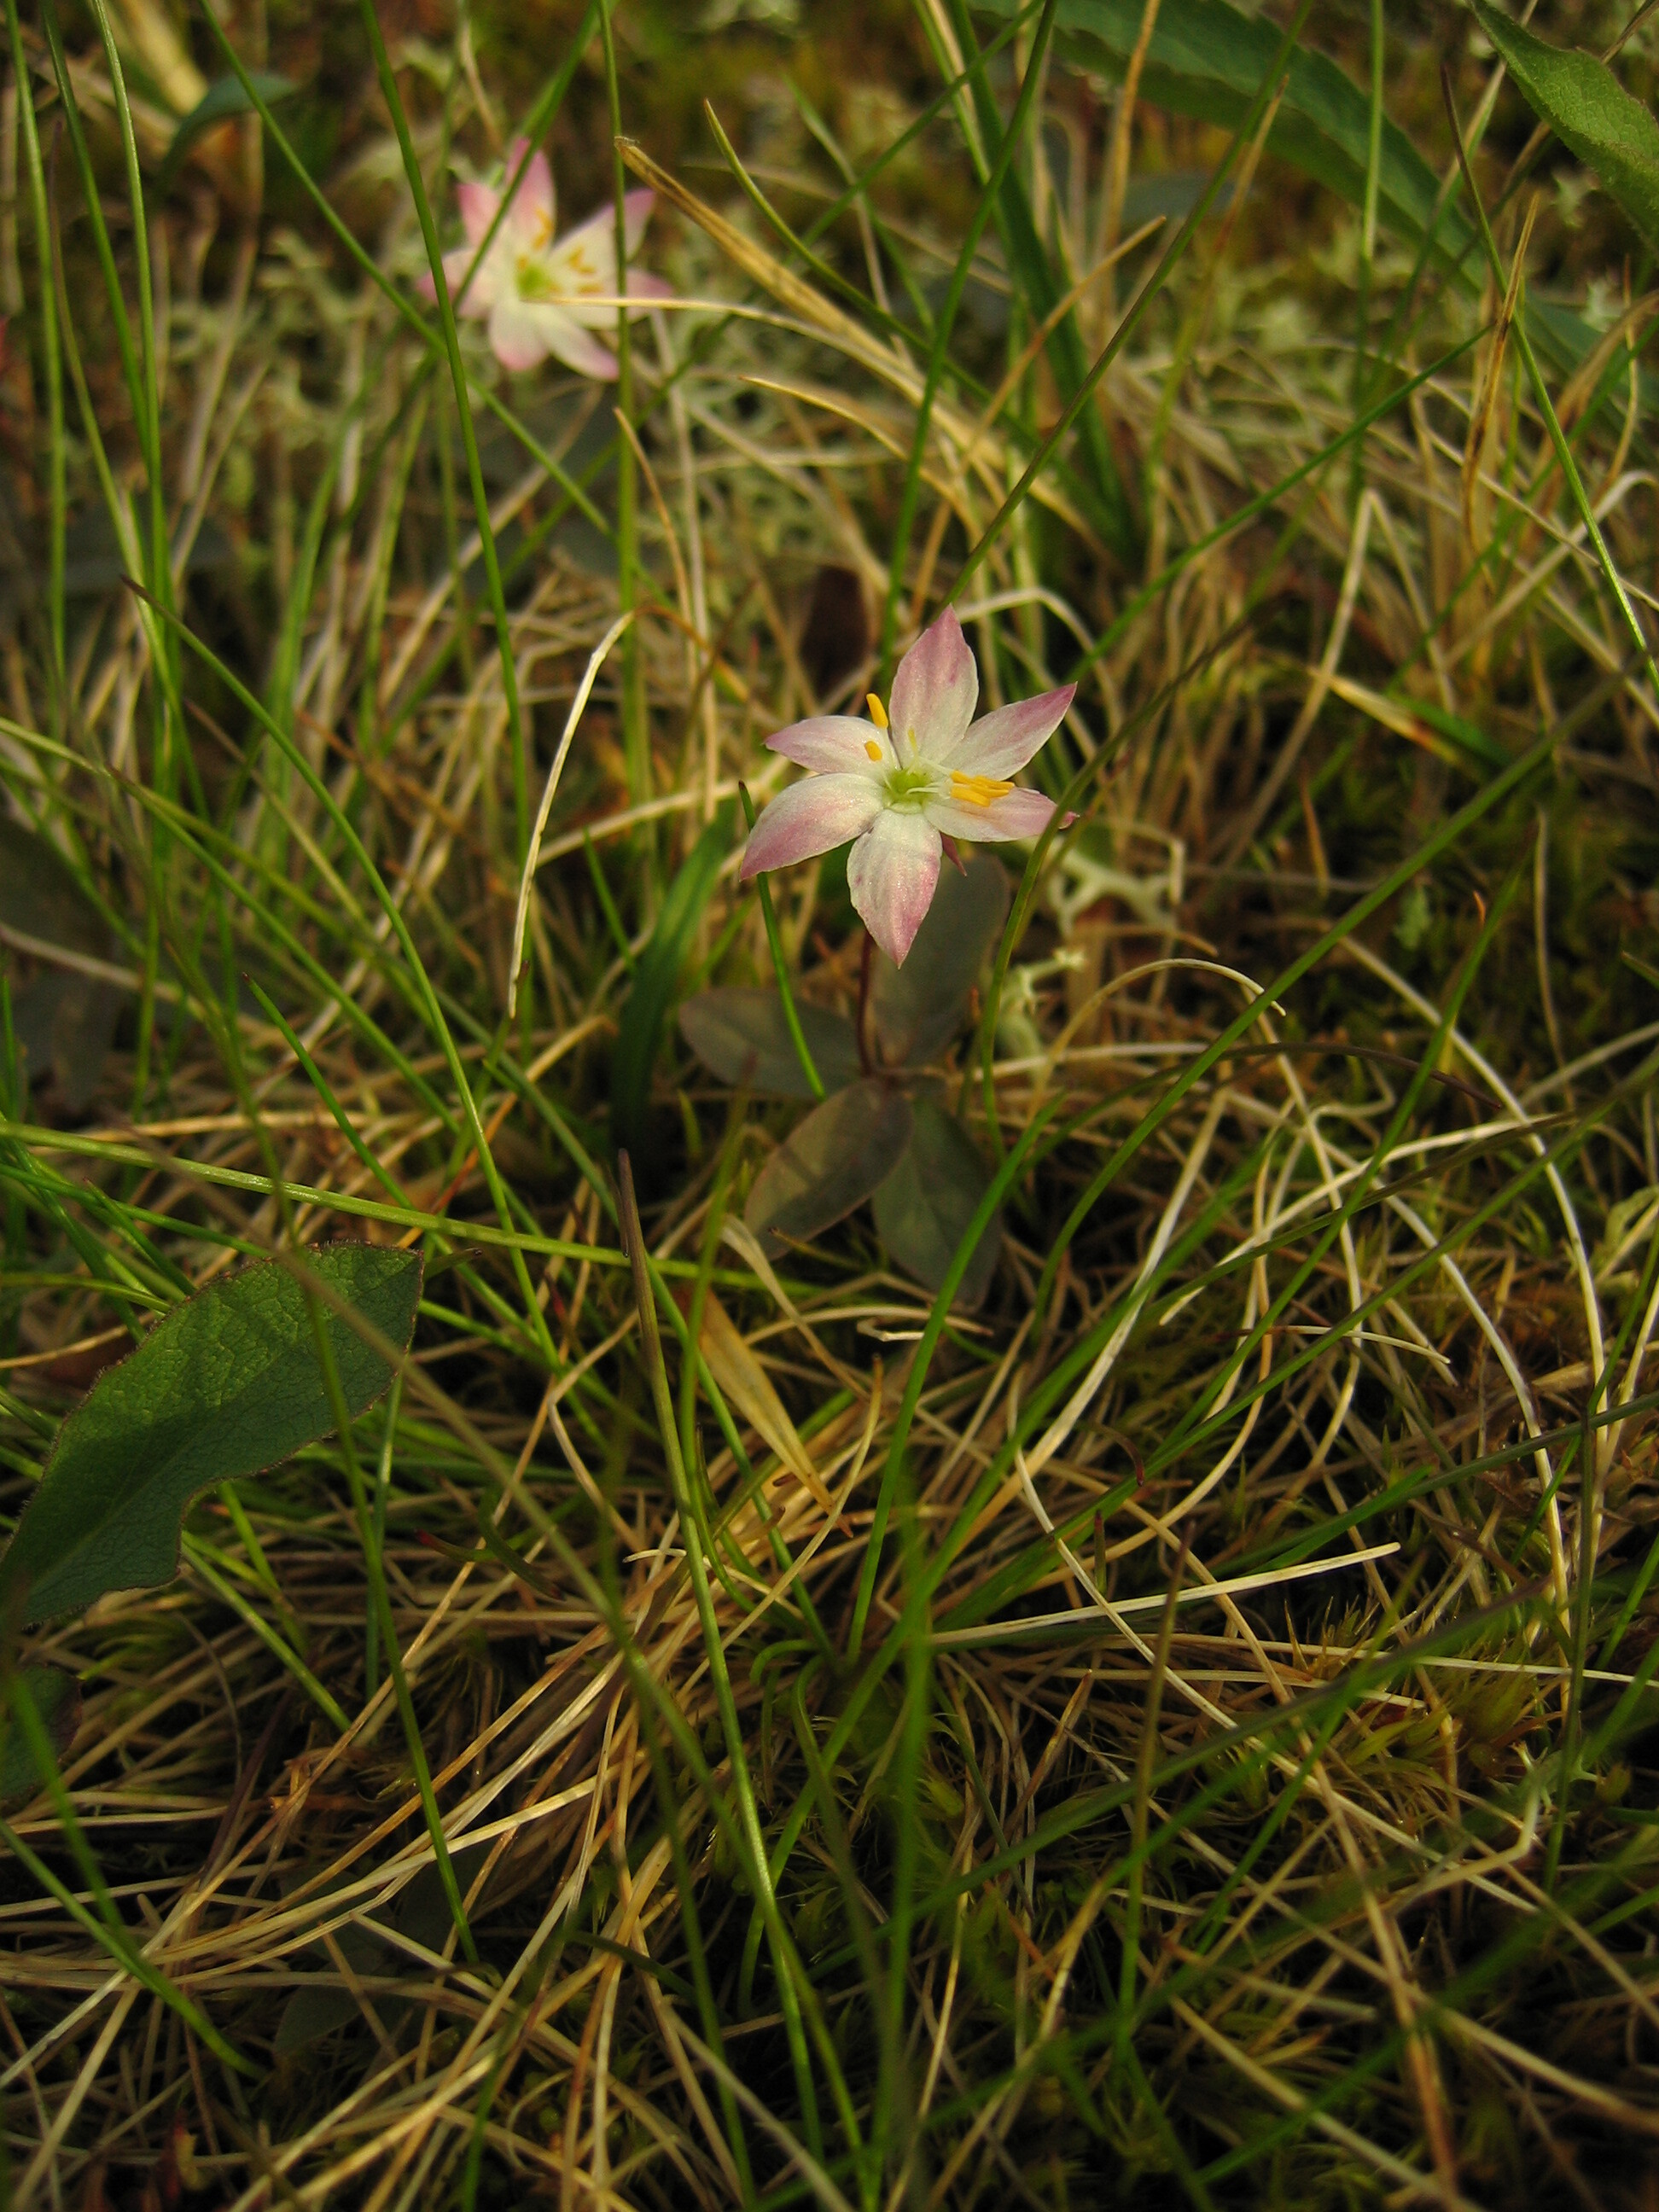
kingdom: Plantae
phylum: Tracheophyta
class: Magnoliopsida
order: Ericales
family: Primulaceae
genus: Lysimachia
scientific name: Lysimachia europaea
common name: Arctic starflower
